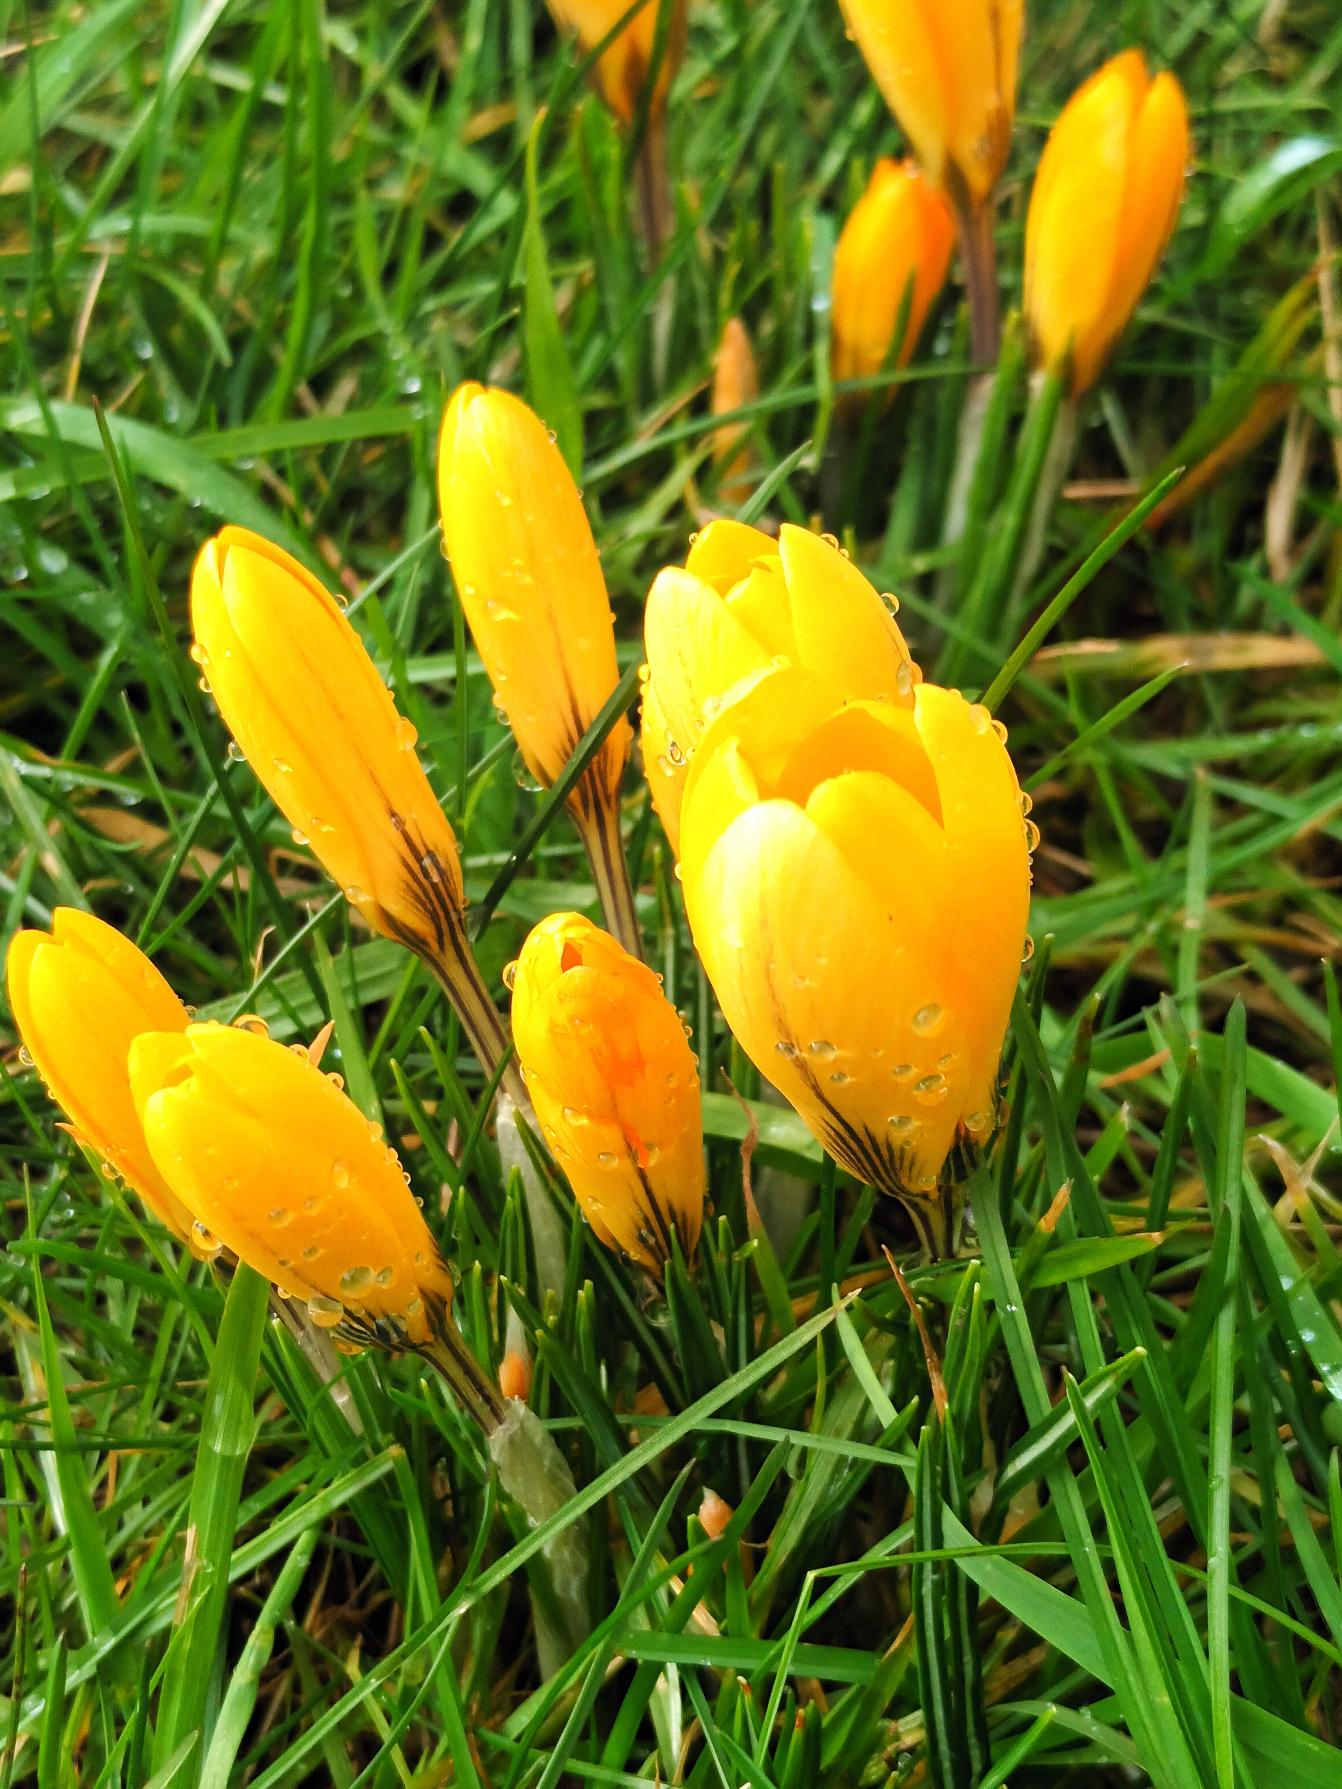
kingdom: Plantae
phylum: Tracheophyta
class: Liliopsida
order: Asparagales
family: Iridaceae
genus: Crocus
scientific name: Crocus luteus
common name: Gul krokus
